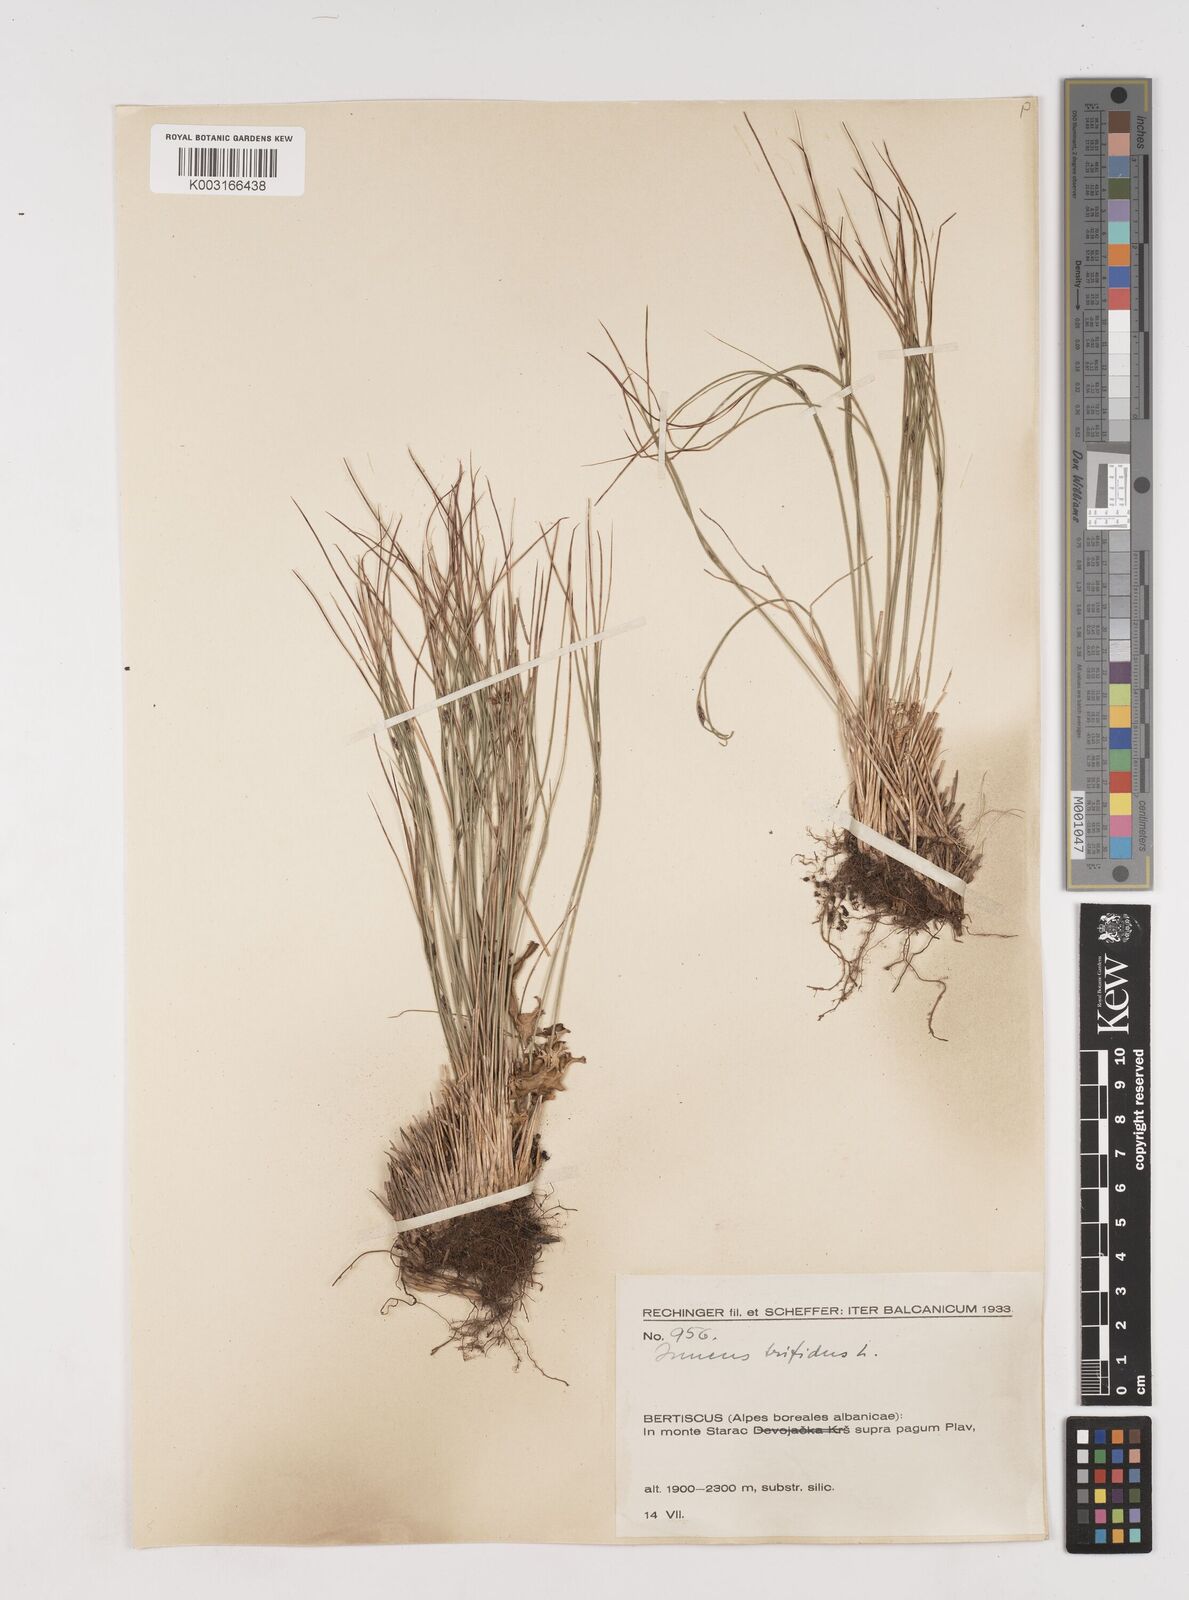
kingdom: Plantae
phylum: Tracheophyta
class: Liliopsida
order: Poales
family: Juncaceae
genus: Oreojuncus
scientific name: Oreojuncus trifidus
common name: Highland rush
